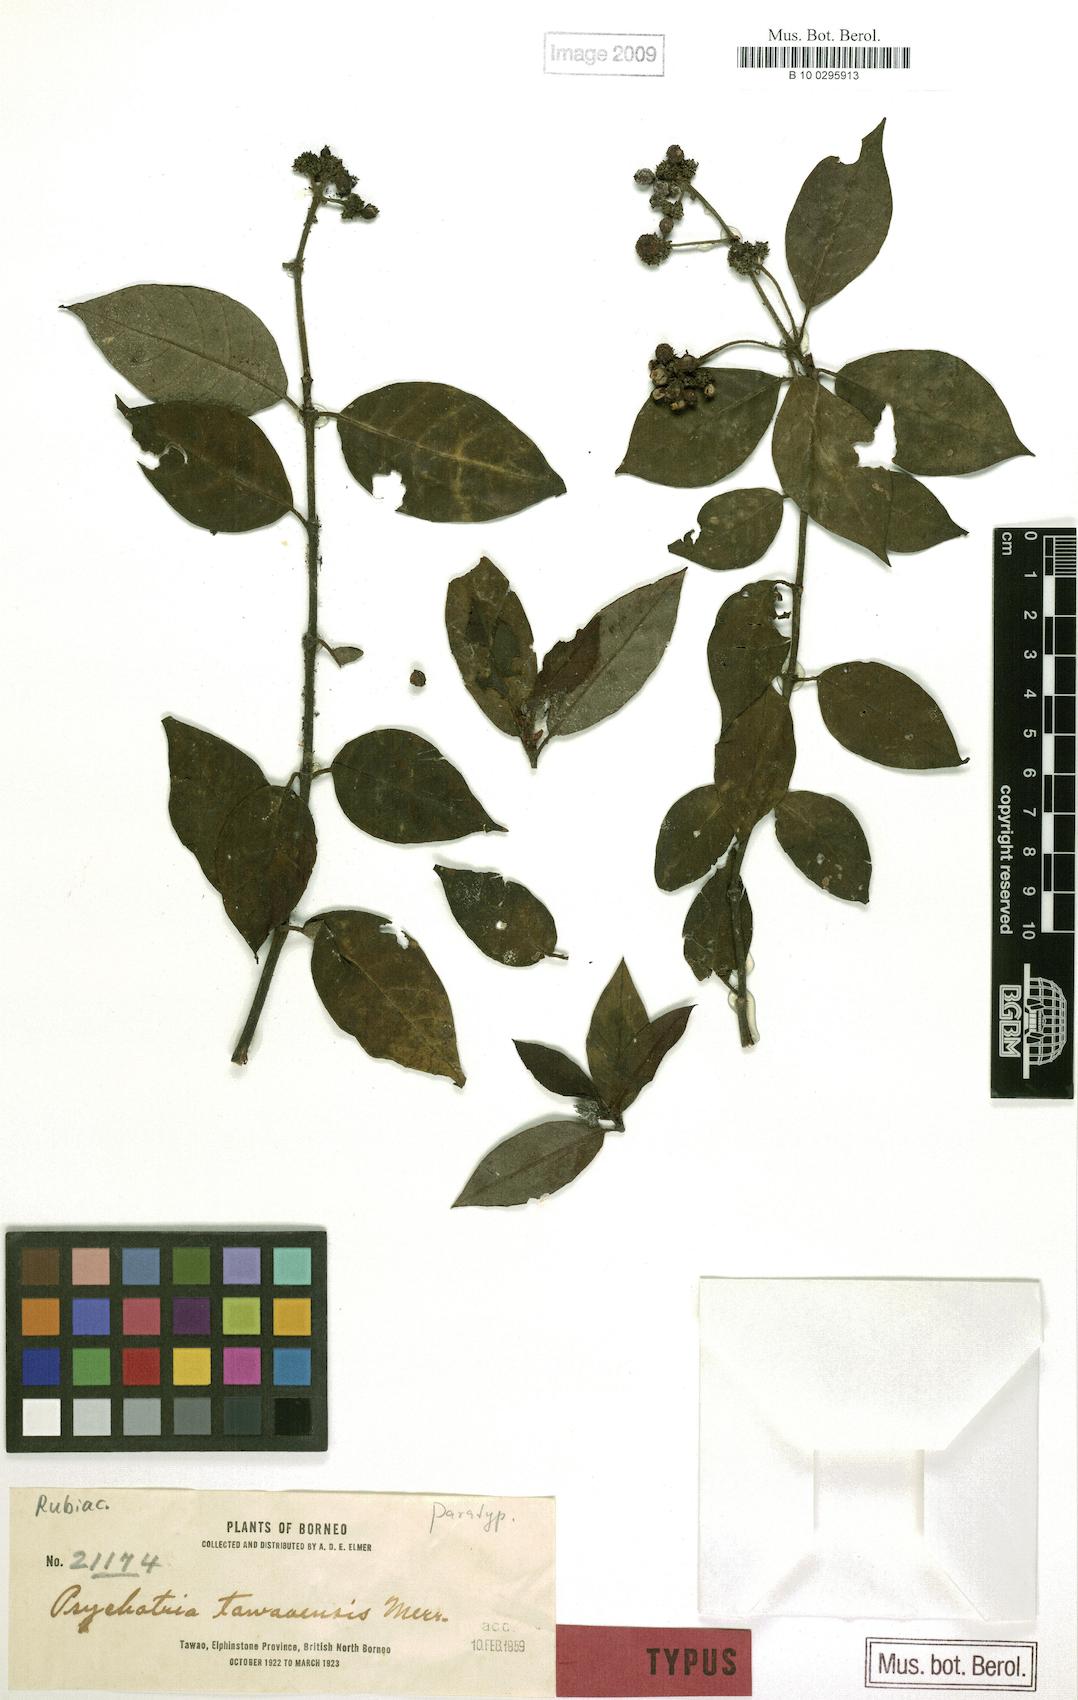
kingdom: Plantae
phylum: Tracheophyta
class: Magnoliopsida
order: Gentianales
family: Rubiaceae
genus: Psychotria
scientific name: Psychotria tawaensis
